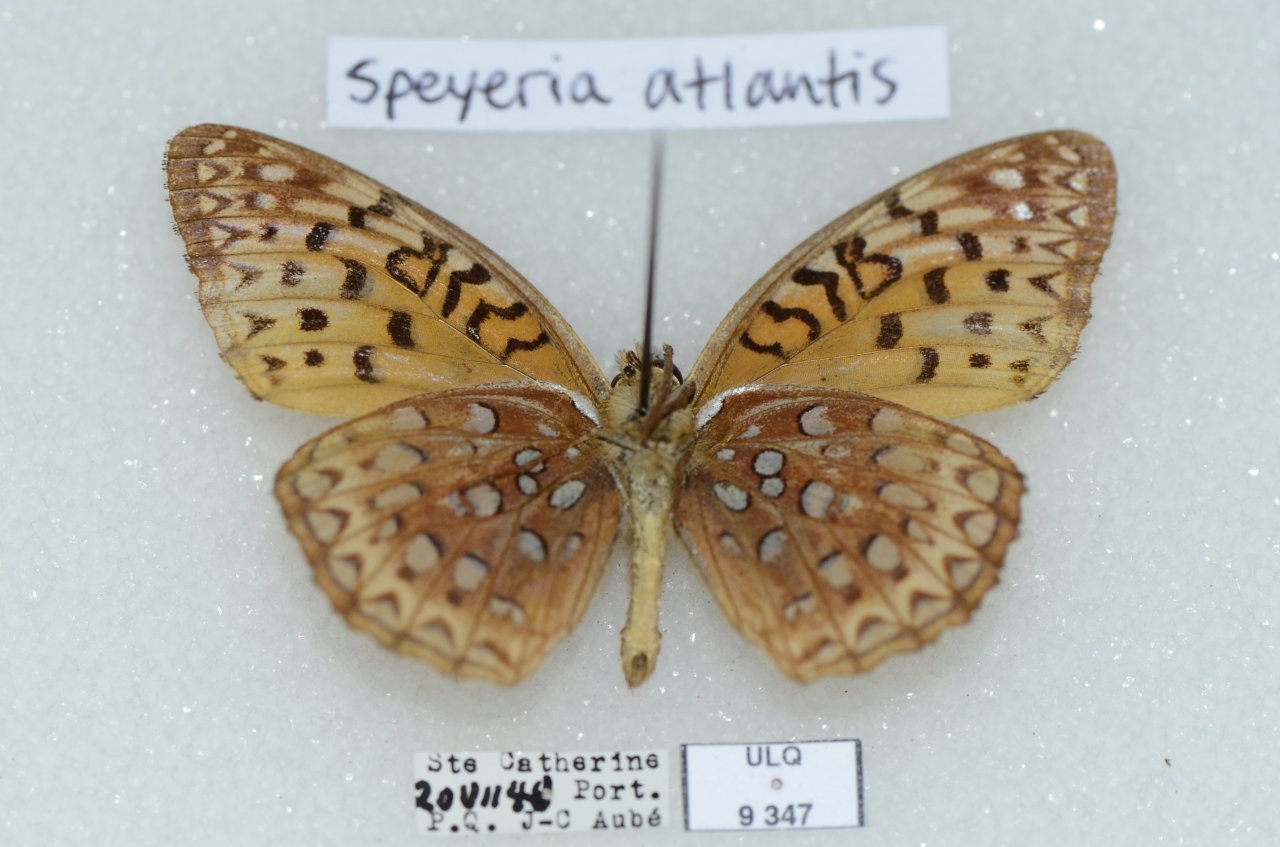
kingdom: Animalia
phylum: Arthropoda
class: Insecta
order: Lepidoptera
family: Nymphalidae
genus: Speyeria
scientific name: Speyeria aphrodite
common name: Aphrodite Fritillary
